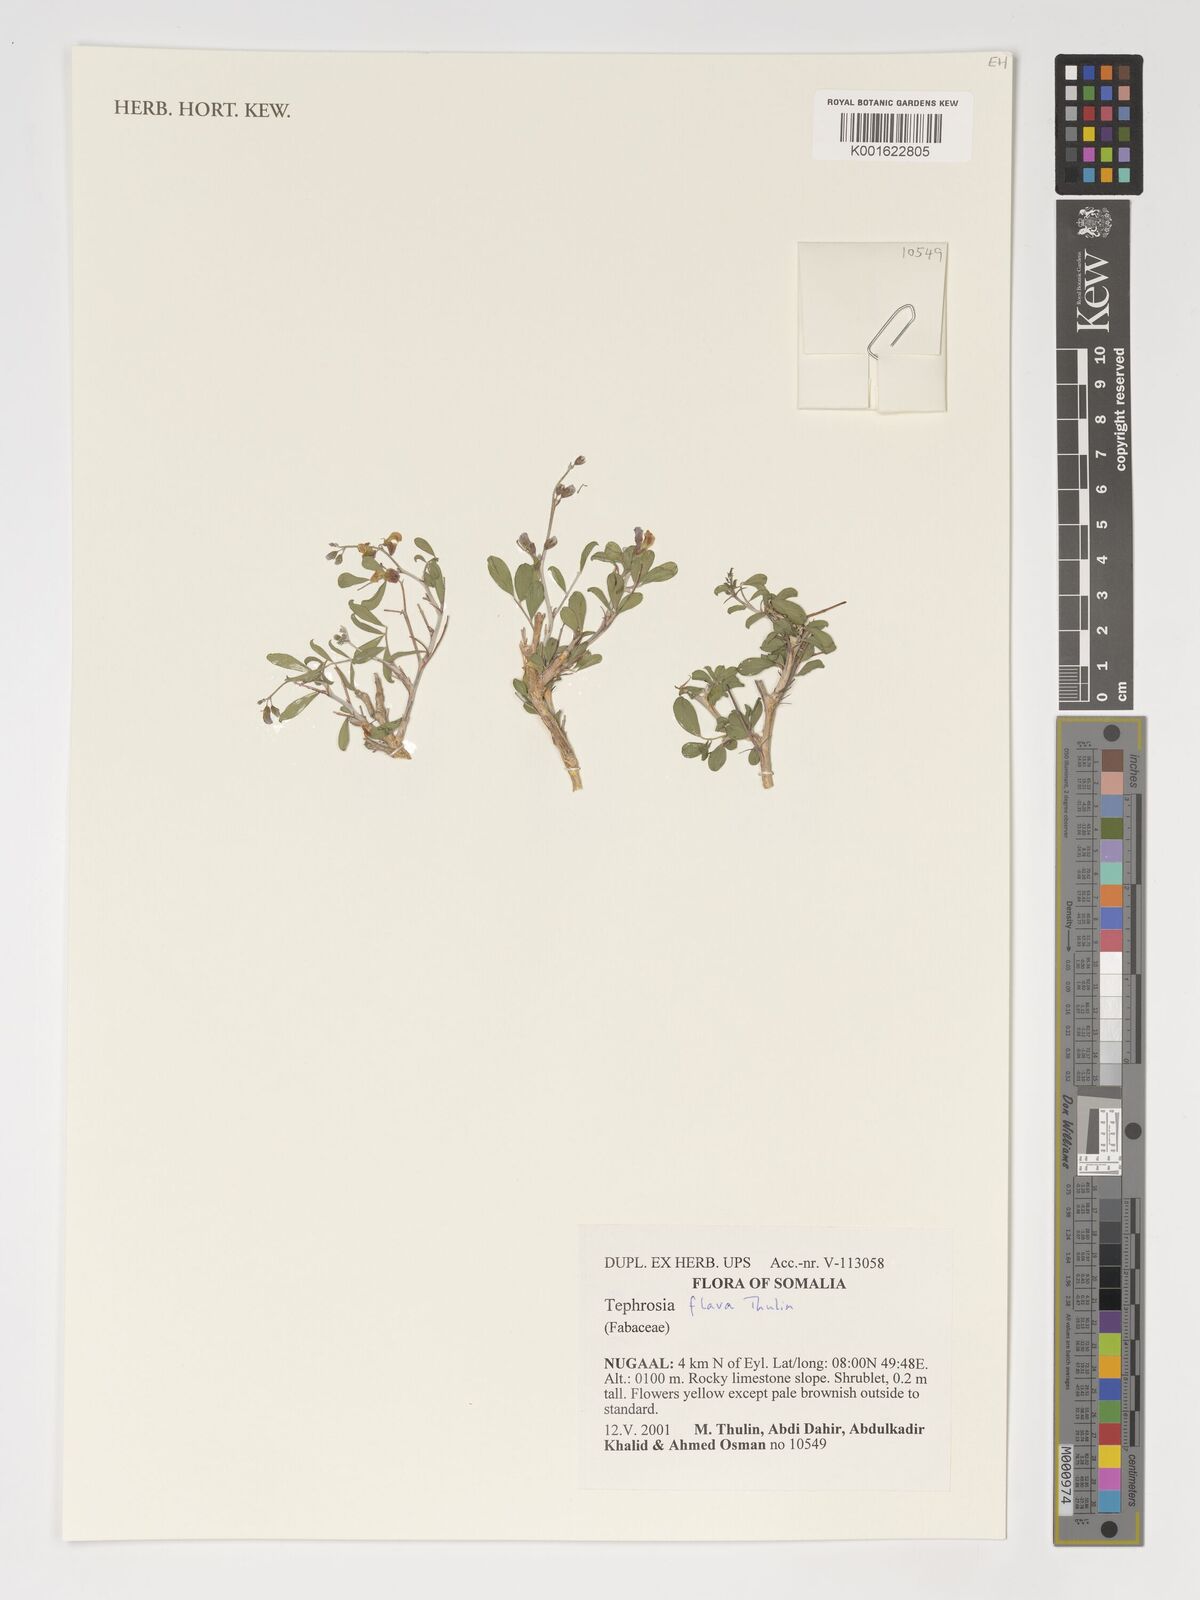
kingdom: Plantae
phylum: Tracheophyta
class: Magnoliopsida
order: Fabales
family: Fabaceae
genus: Tephrosia
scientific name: Tephrosia flava
